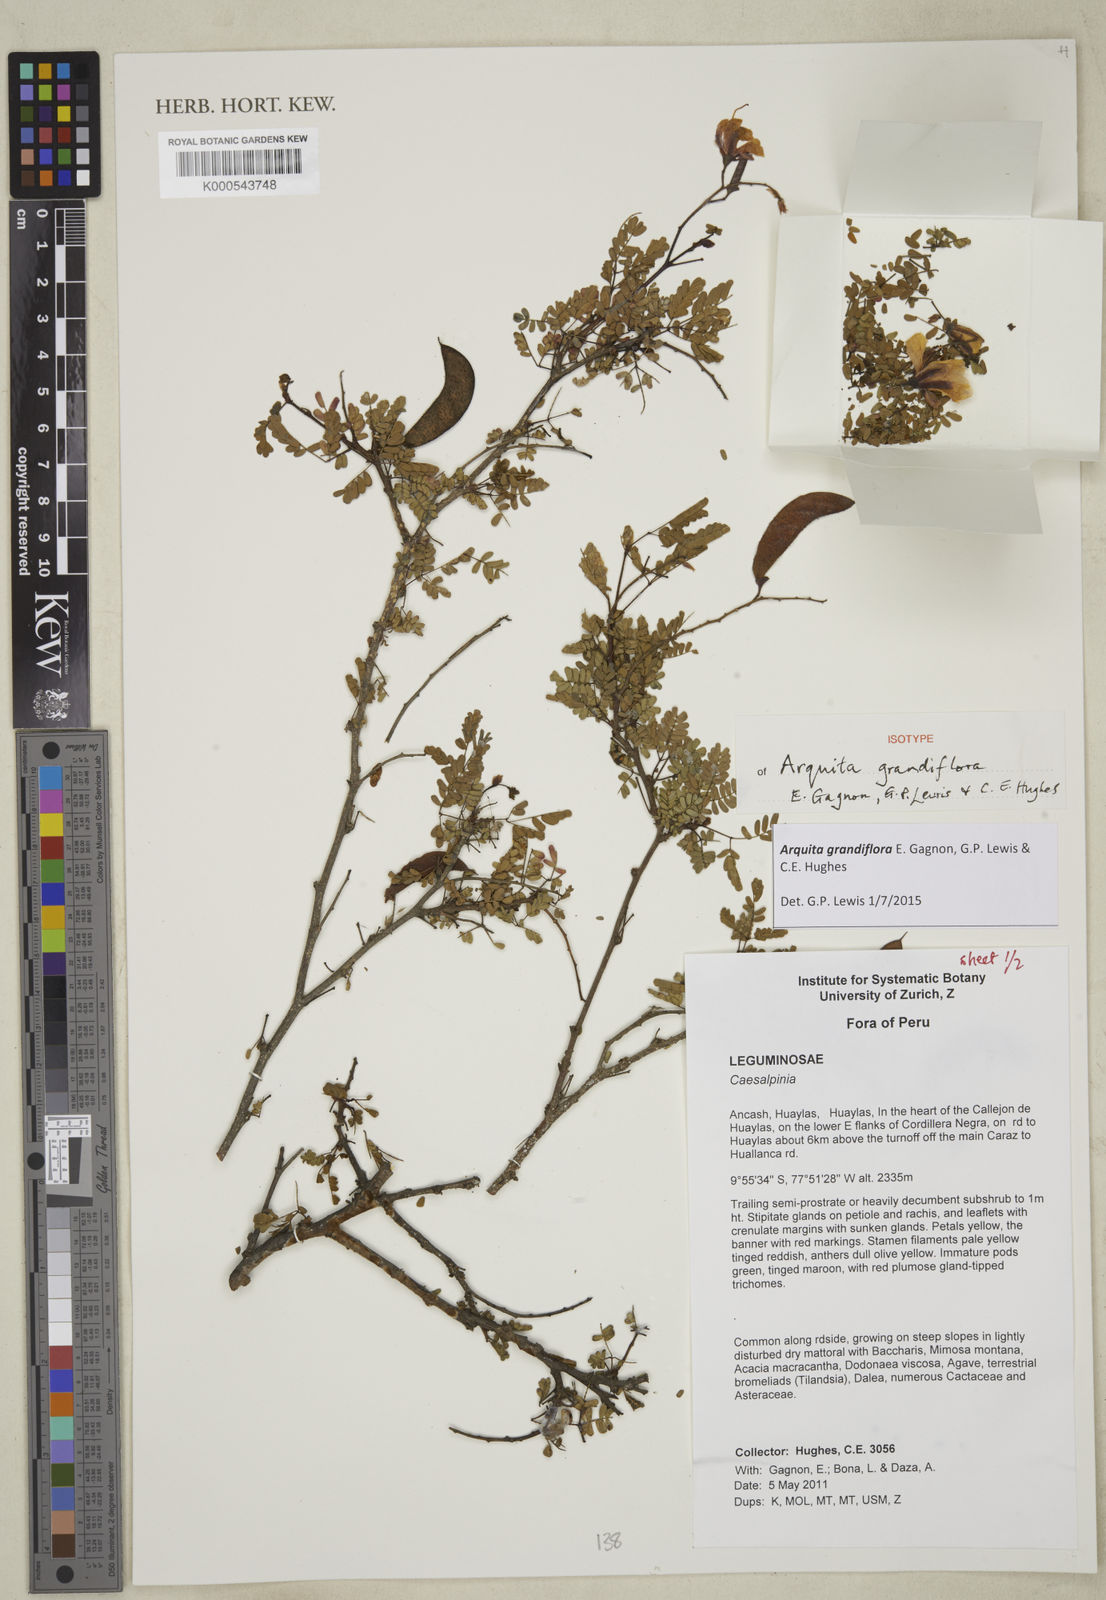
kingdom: Plantae
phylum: Tracheophyta
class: Magnoliopsida
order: Fabales
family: Fabaceae
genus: Arquita
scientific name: Arquita grandiflora
